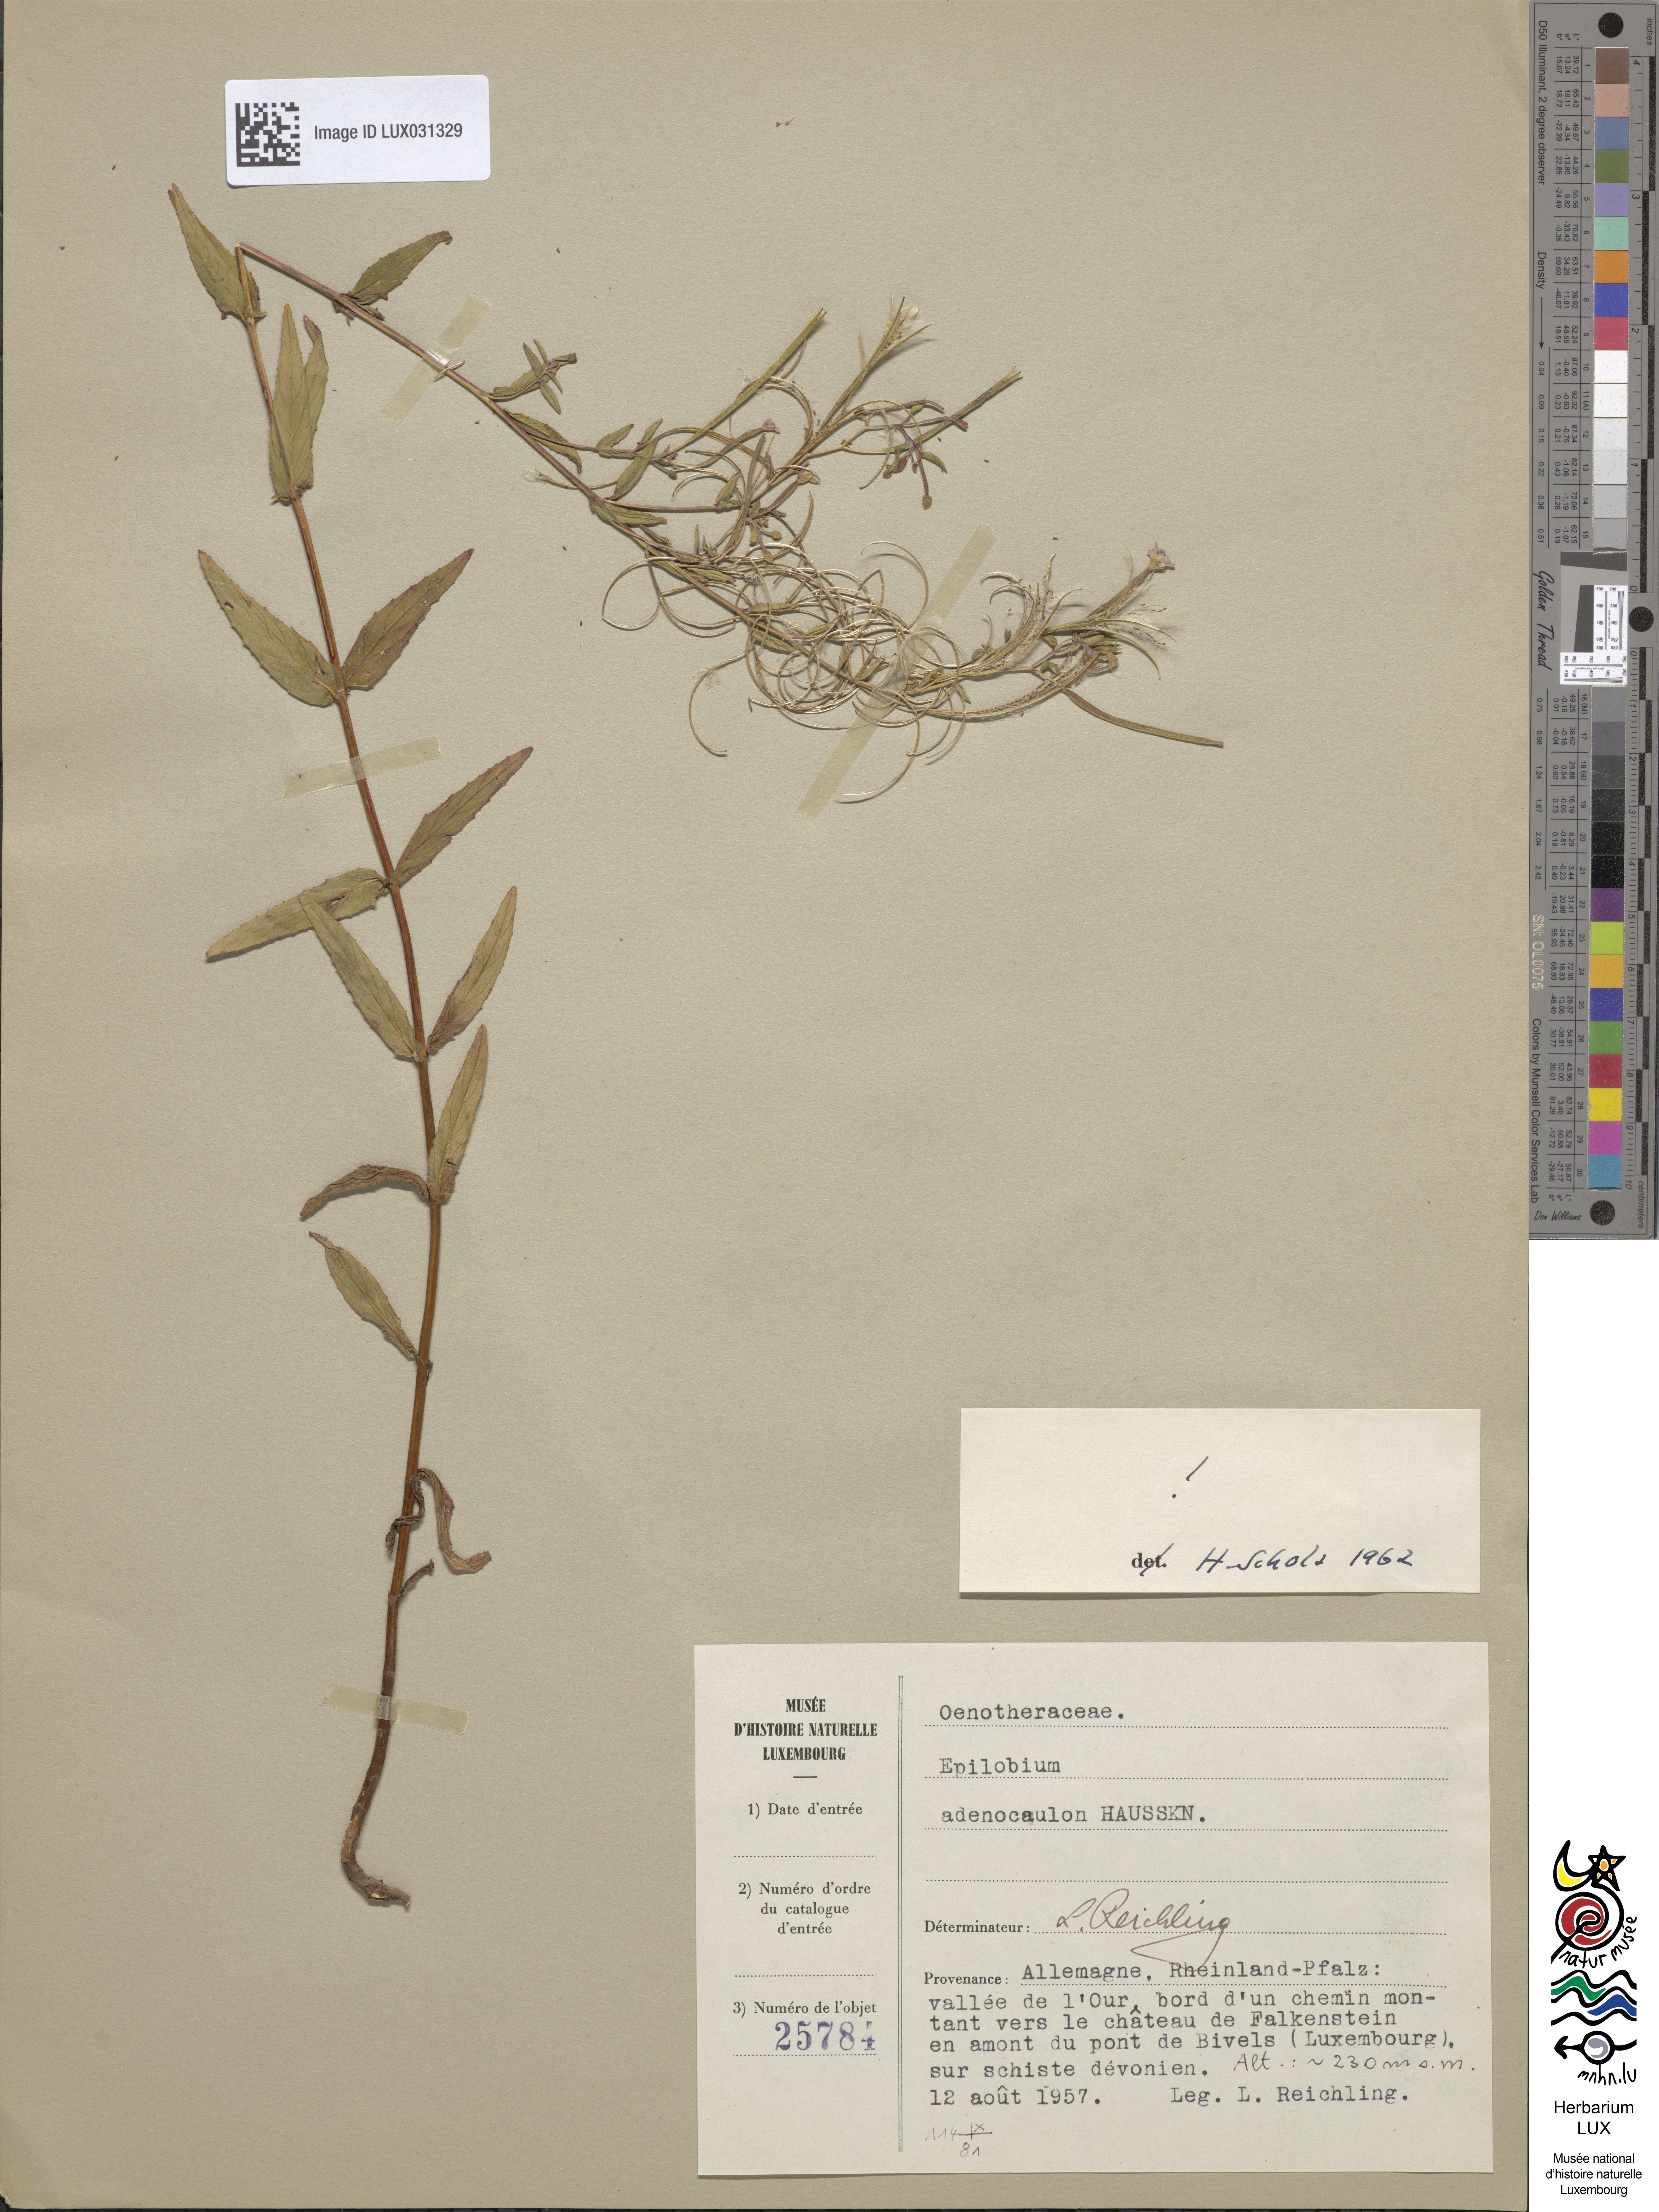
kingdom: Plantae
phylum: Tracheophyta
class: Magnoliopsida
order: Myrtales
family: Onagraceae
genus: Epilobium
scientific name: Epilobium ciliatum
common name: American willowherb
